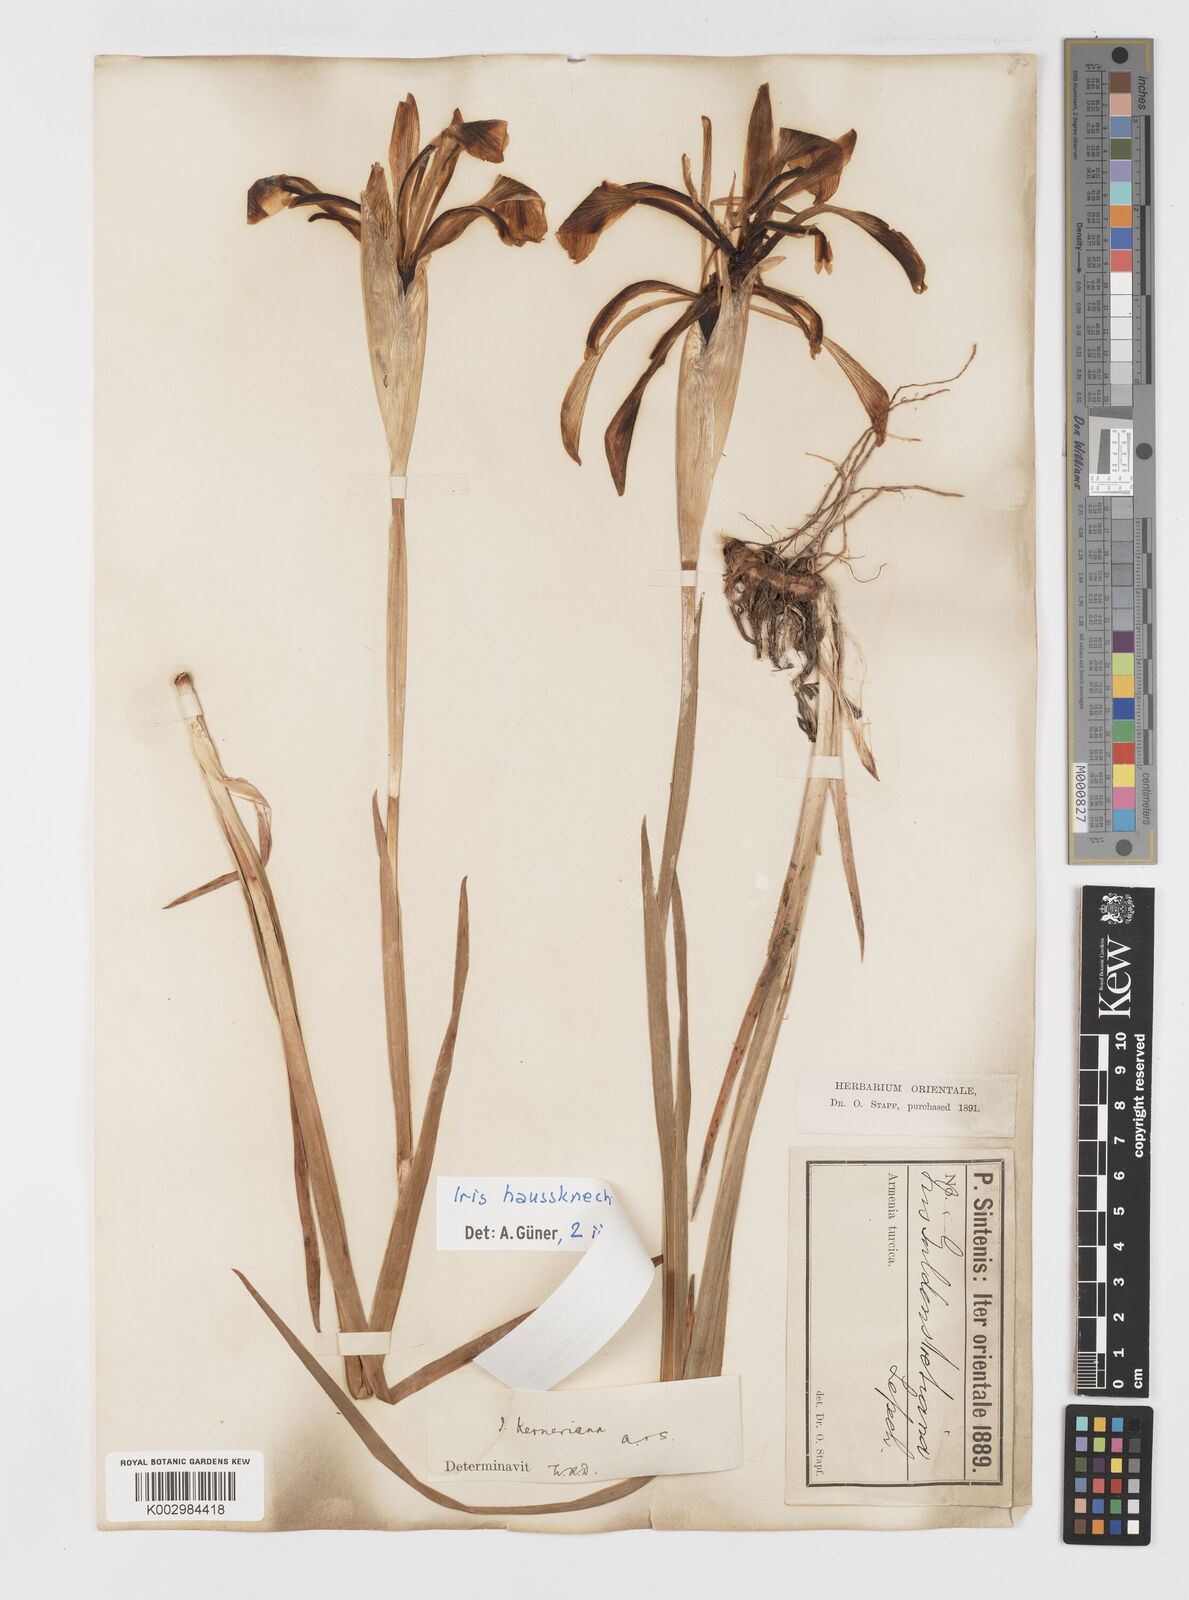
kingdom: Plantae
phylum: Tracheophyta
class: Liliopsida
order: Asparagales
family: Iridaceae
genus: Iris
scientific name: Iris haussknechtii
